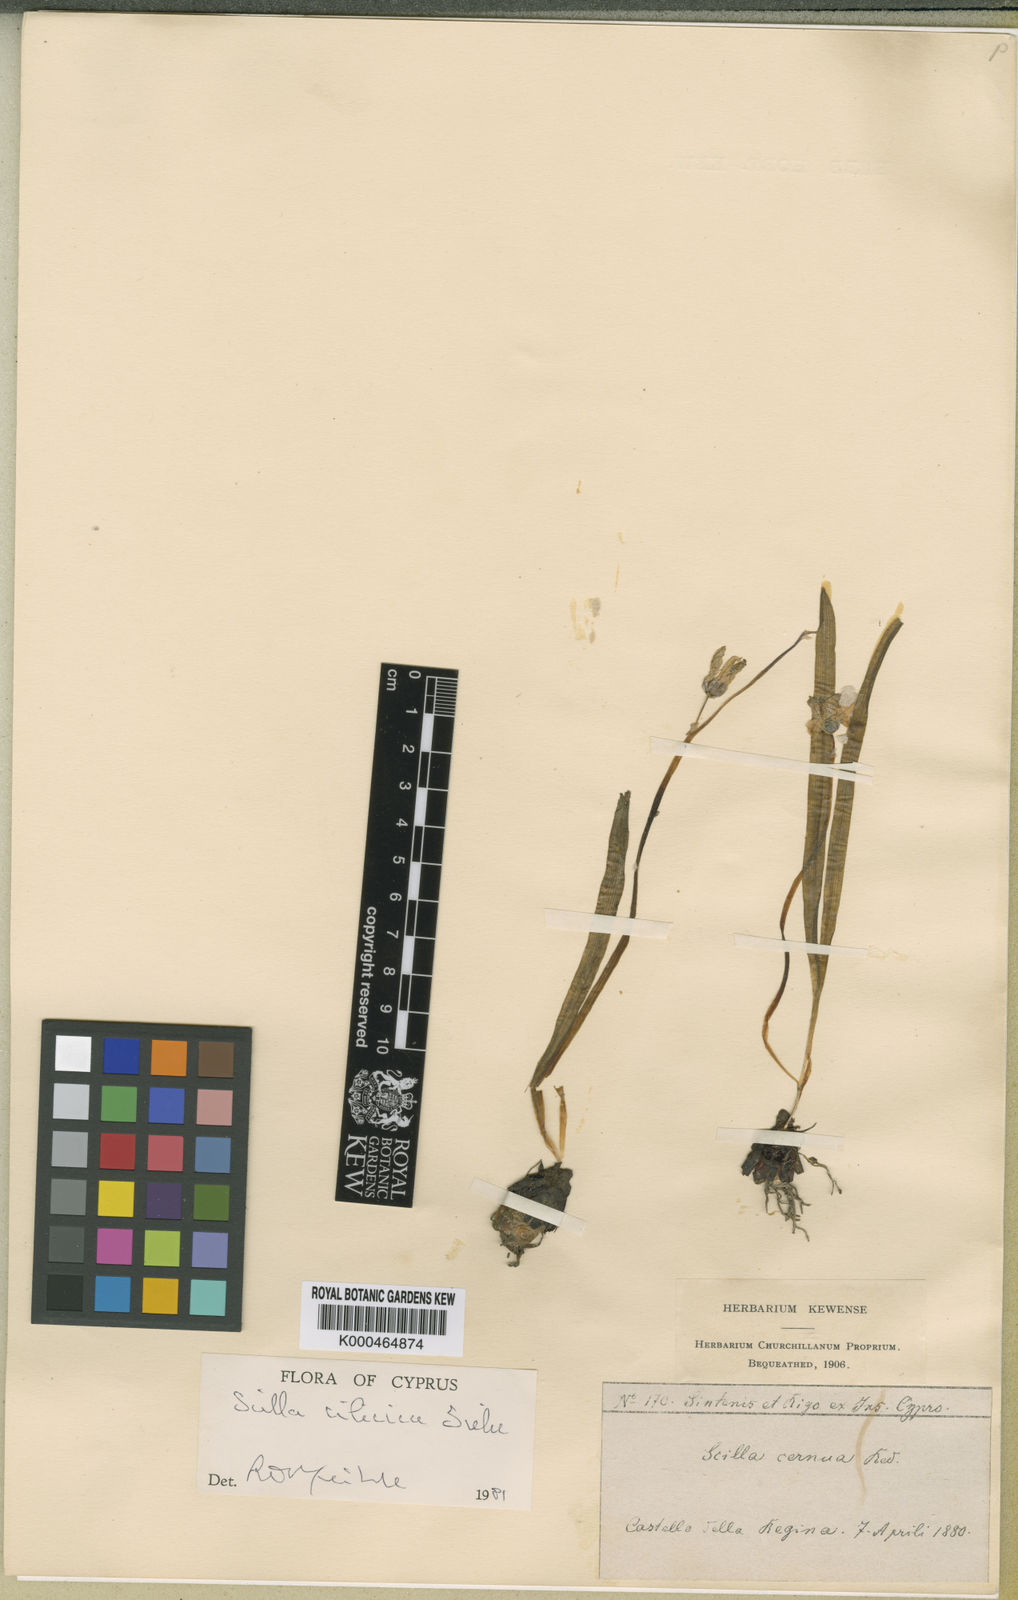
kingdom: Plantae
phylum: Tracheophyta
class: Liliopsida
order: Asparagales
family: Asparagaceae
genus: Scilla
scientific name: Scilla cilicica
